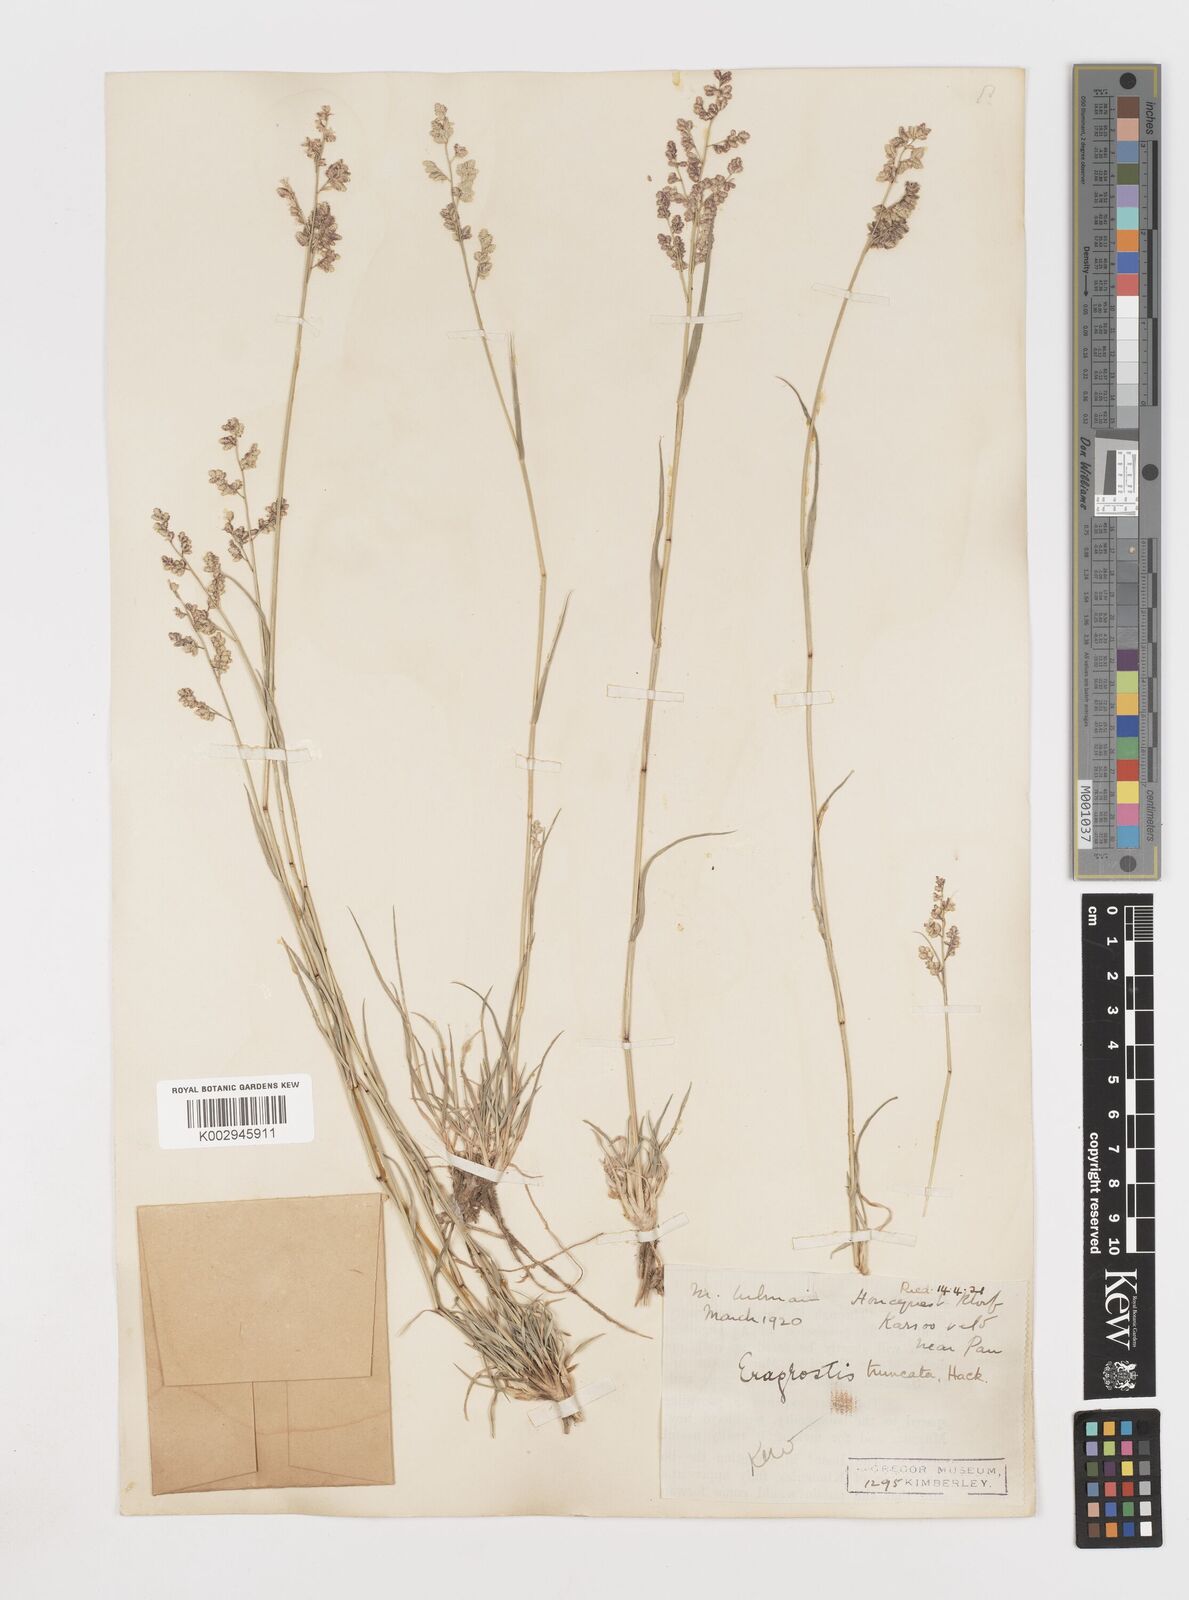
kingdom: Plantae
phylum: Tracheophyta
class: Liliopsida
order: Poales
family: Poaceae
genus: Eragrostis
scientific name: Eragrostis truncata
